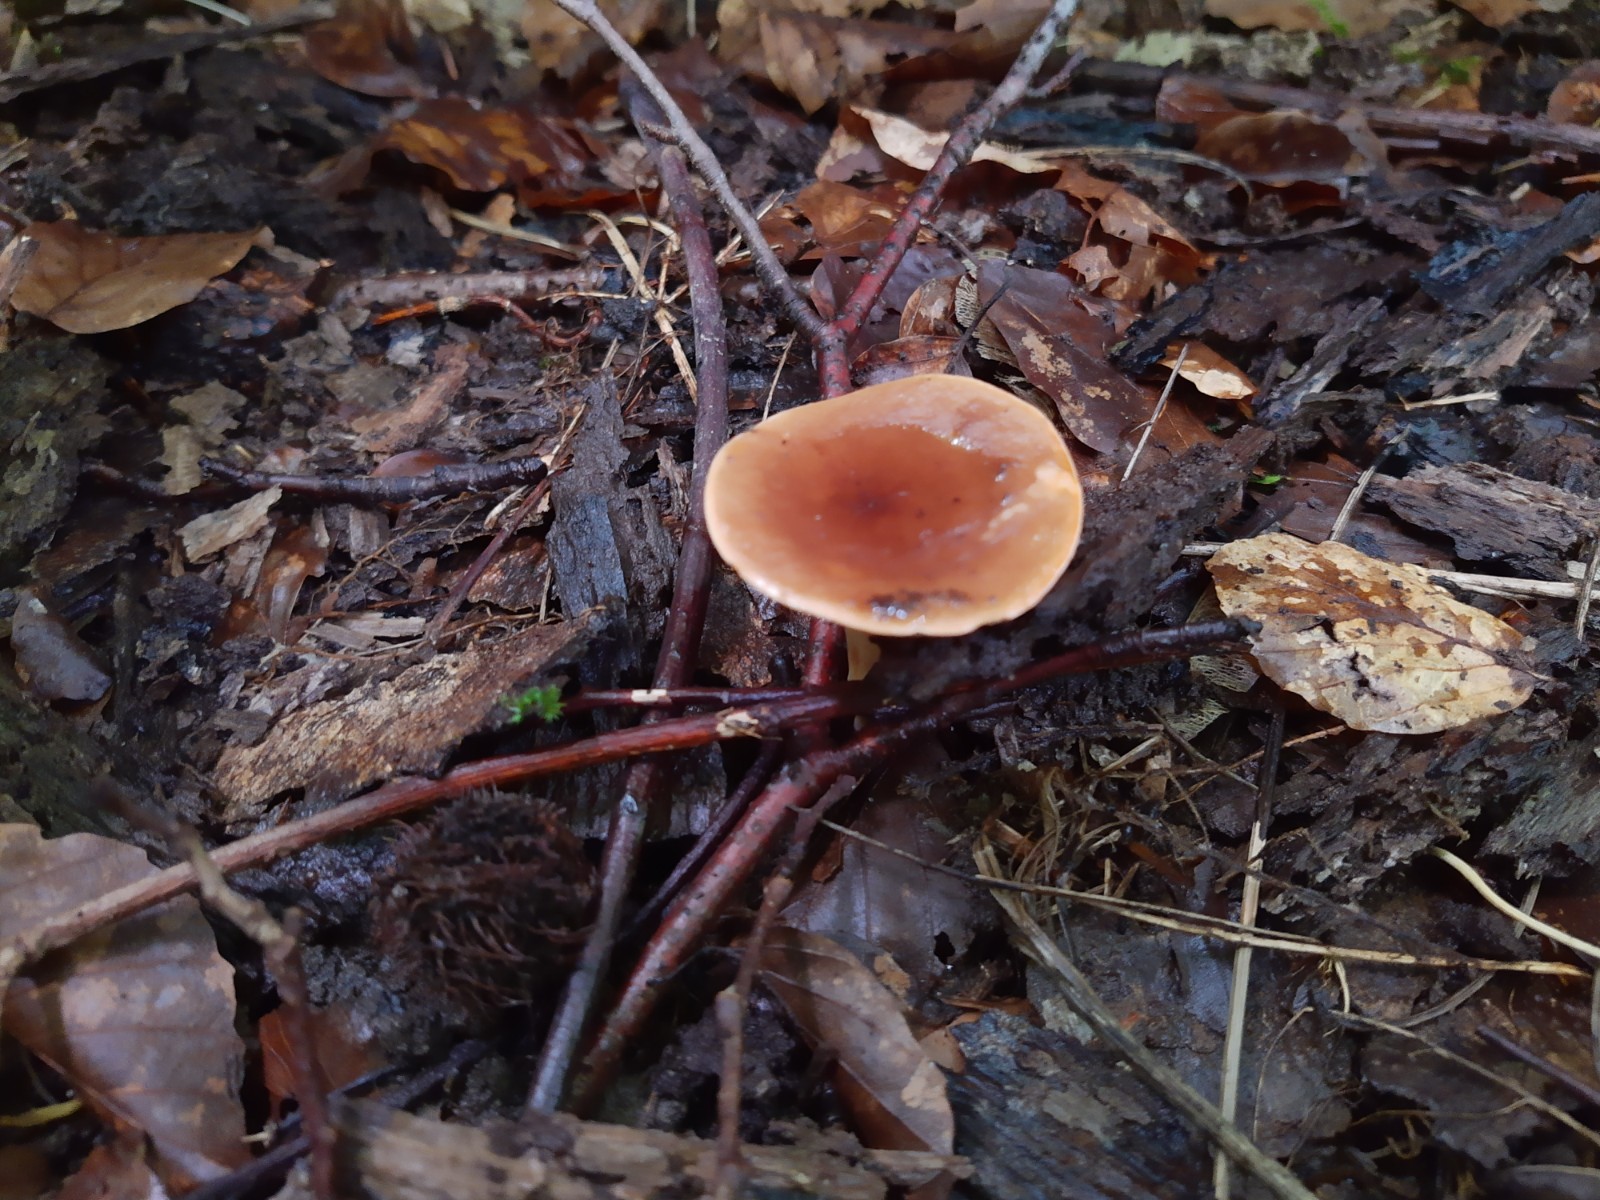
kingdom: Fungi
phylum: Basidiomycota
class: Agaricomycetes
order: Russulales
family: Russulaceae
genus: Lactarius
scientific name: Lactarius subdulcis
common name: sødlig mælkehat
